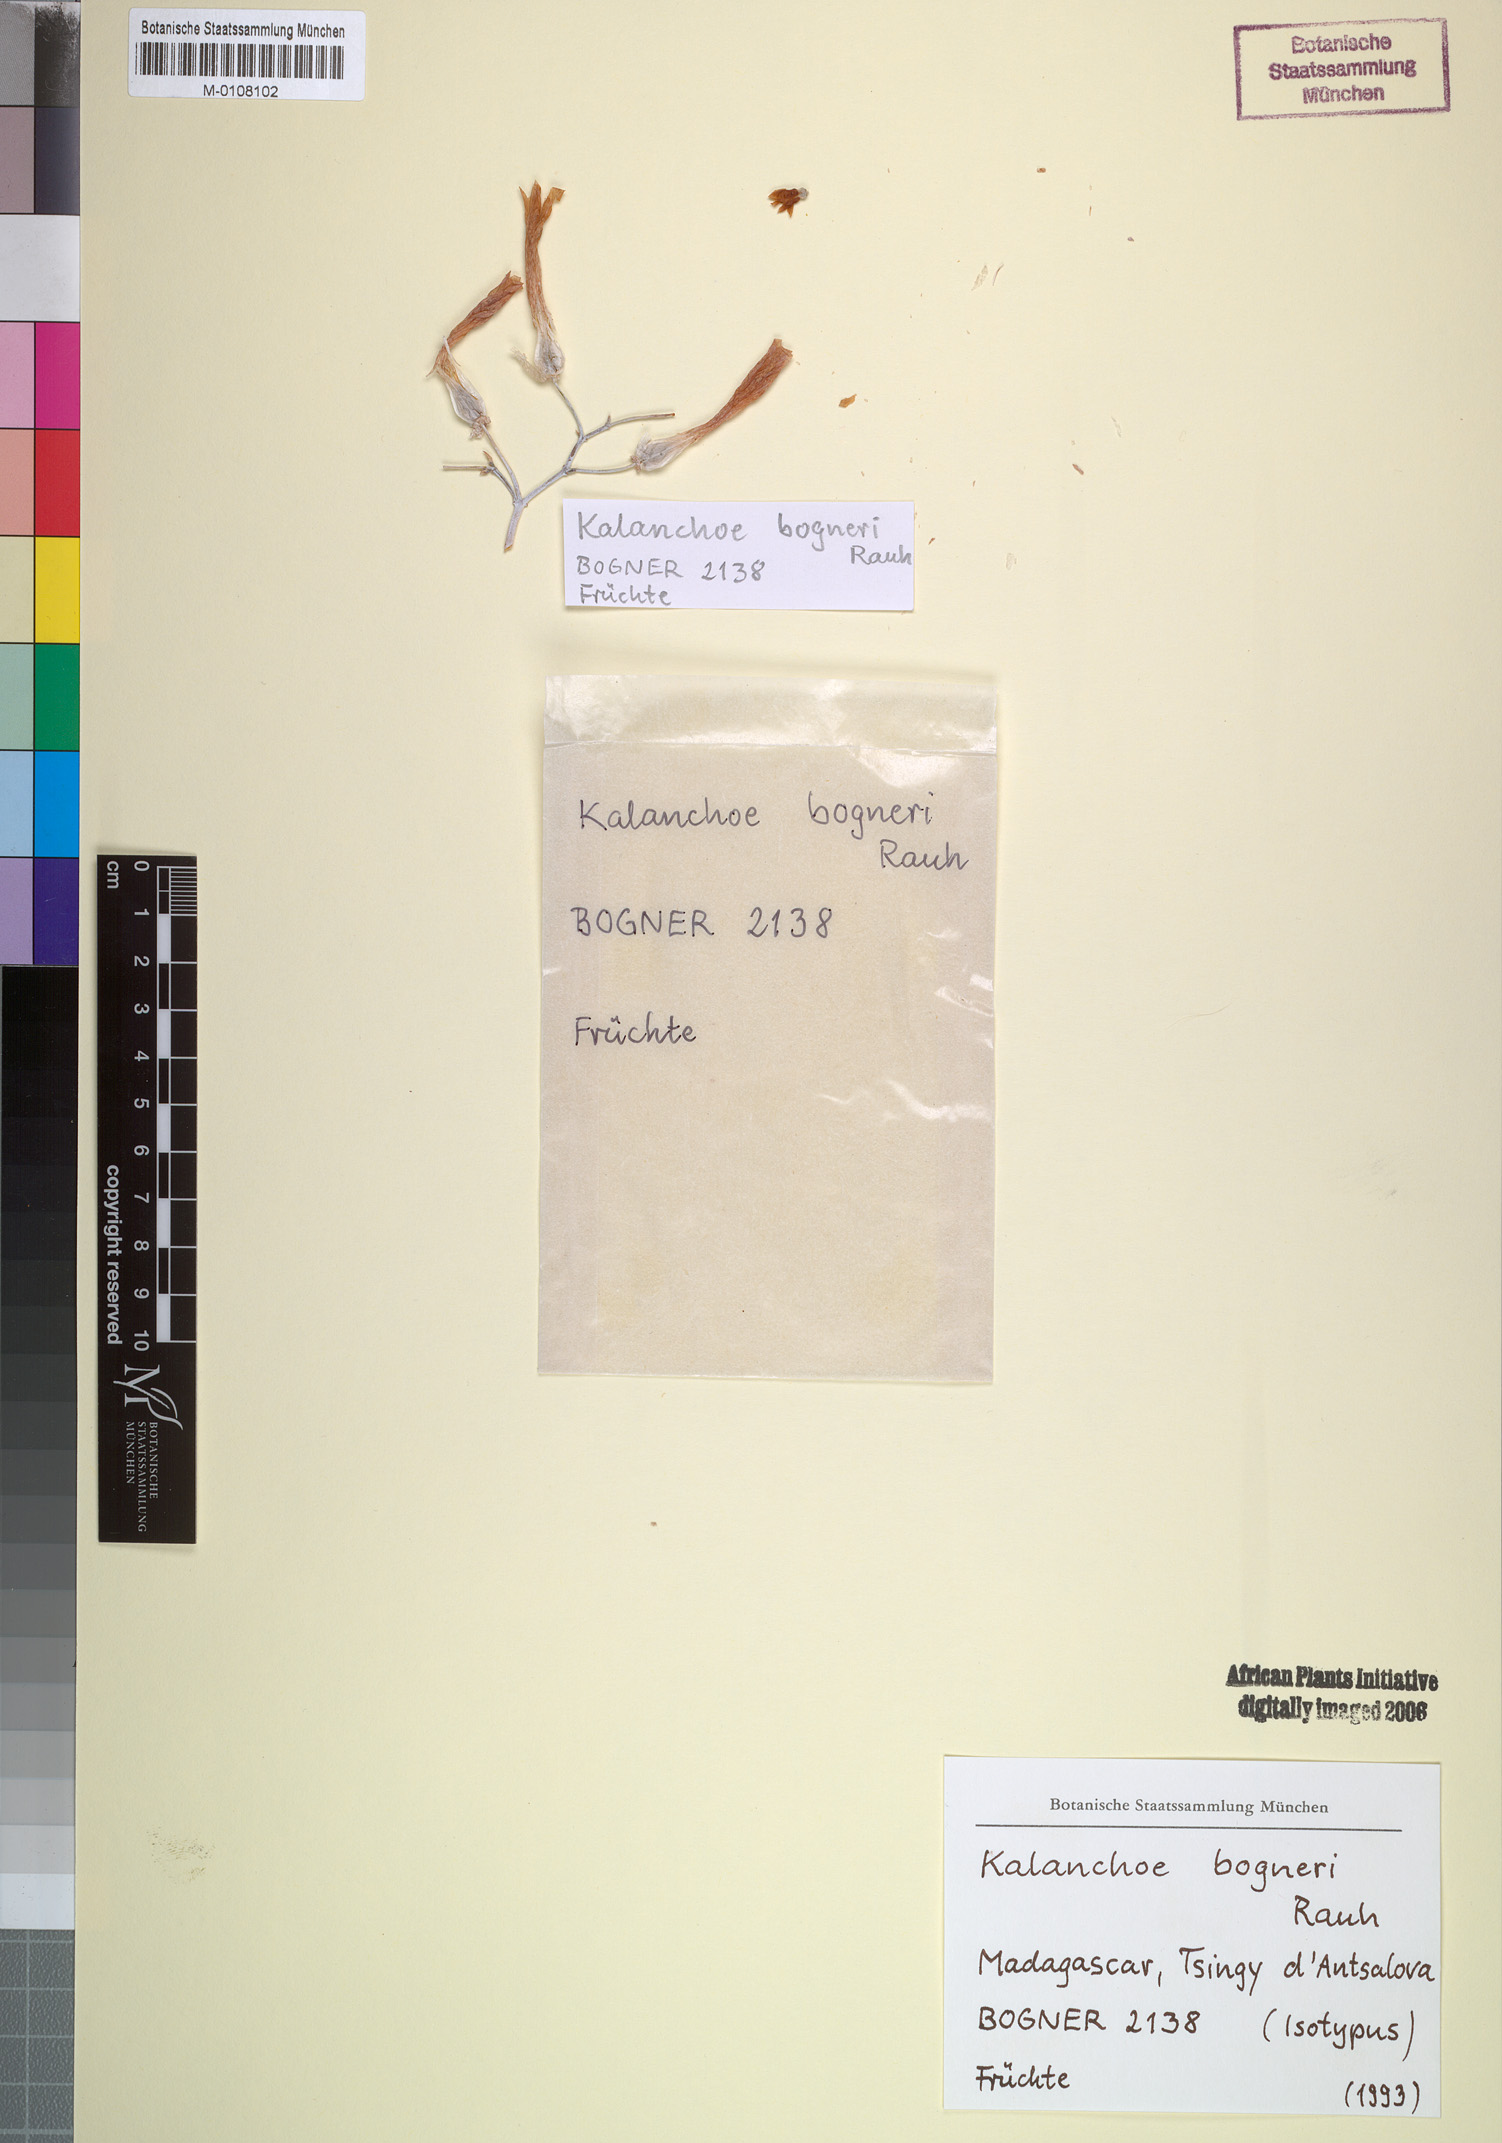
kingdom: Plantae
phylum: Tracheophyta
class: Magnoliopsida
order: Saxifragales
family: Crassulaceae
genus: Kalanchoe
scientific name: Kalanchoe bogneri
